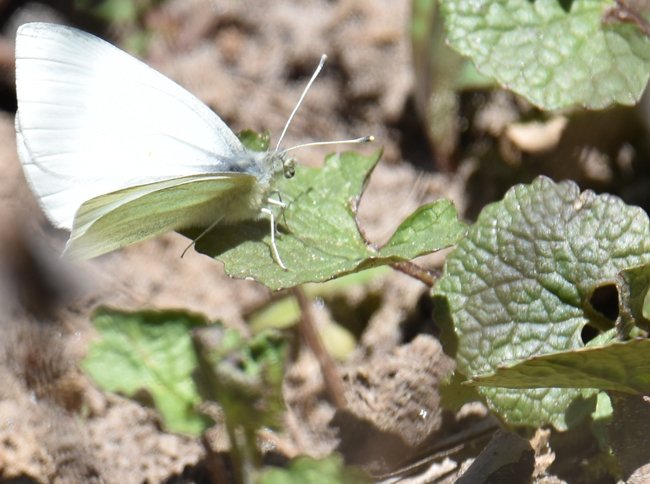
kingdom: Animalia
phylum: Arthropoda
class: Insecta
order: Lepidoptera
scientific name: Lepidoptera
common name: Butterflies
